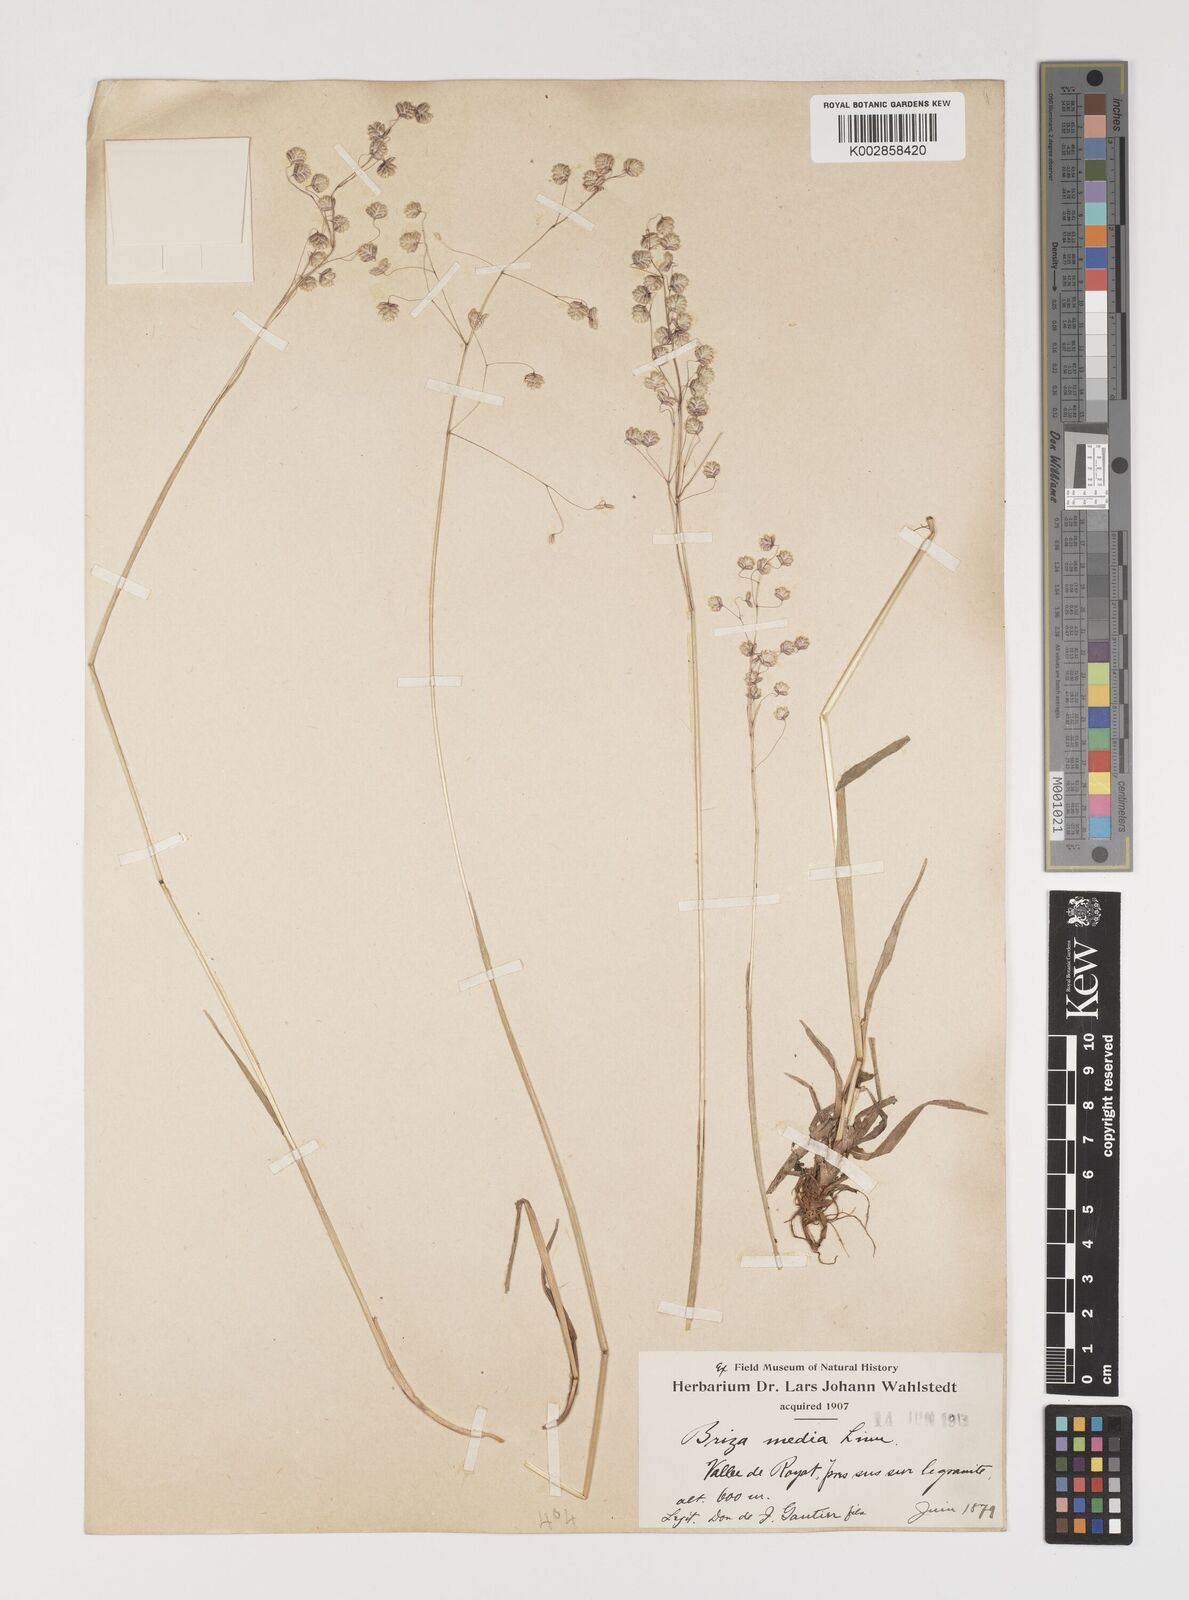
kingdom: Plantae
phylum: Tracheophyta
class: Liliopsida
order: Poales
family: Poaceae
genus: Briza
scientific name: Briza media
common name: Quaking grass
